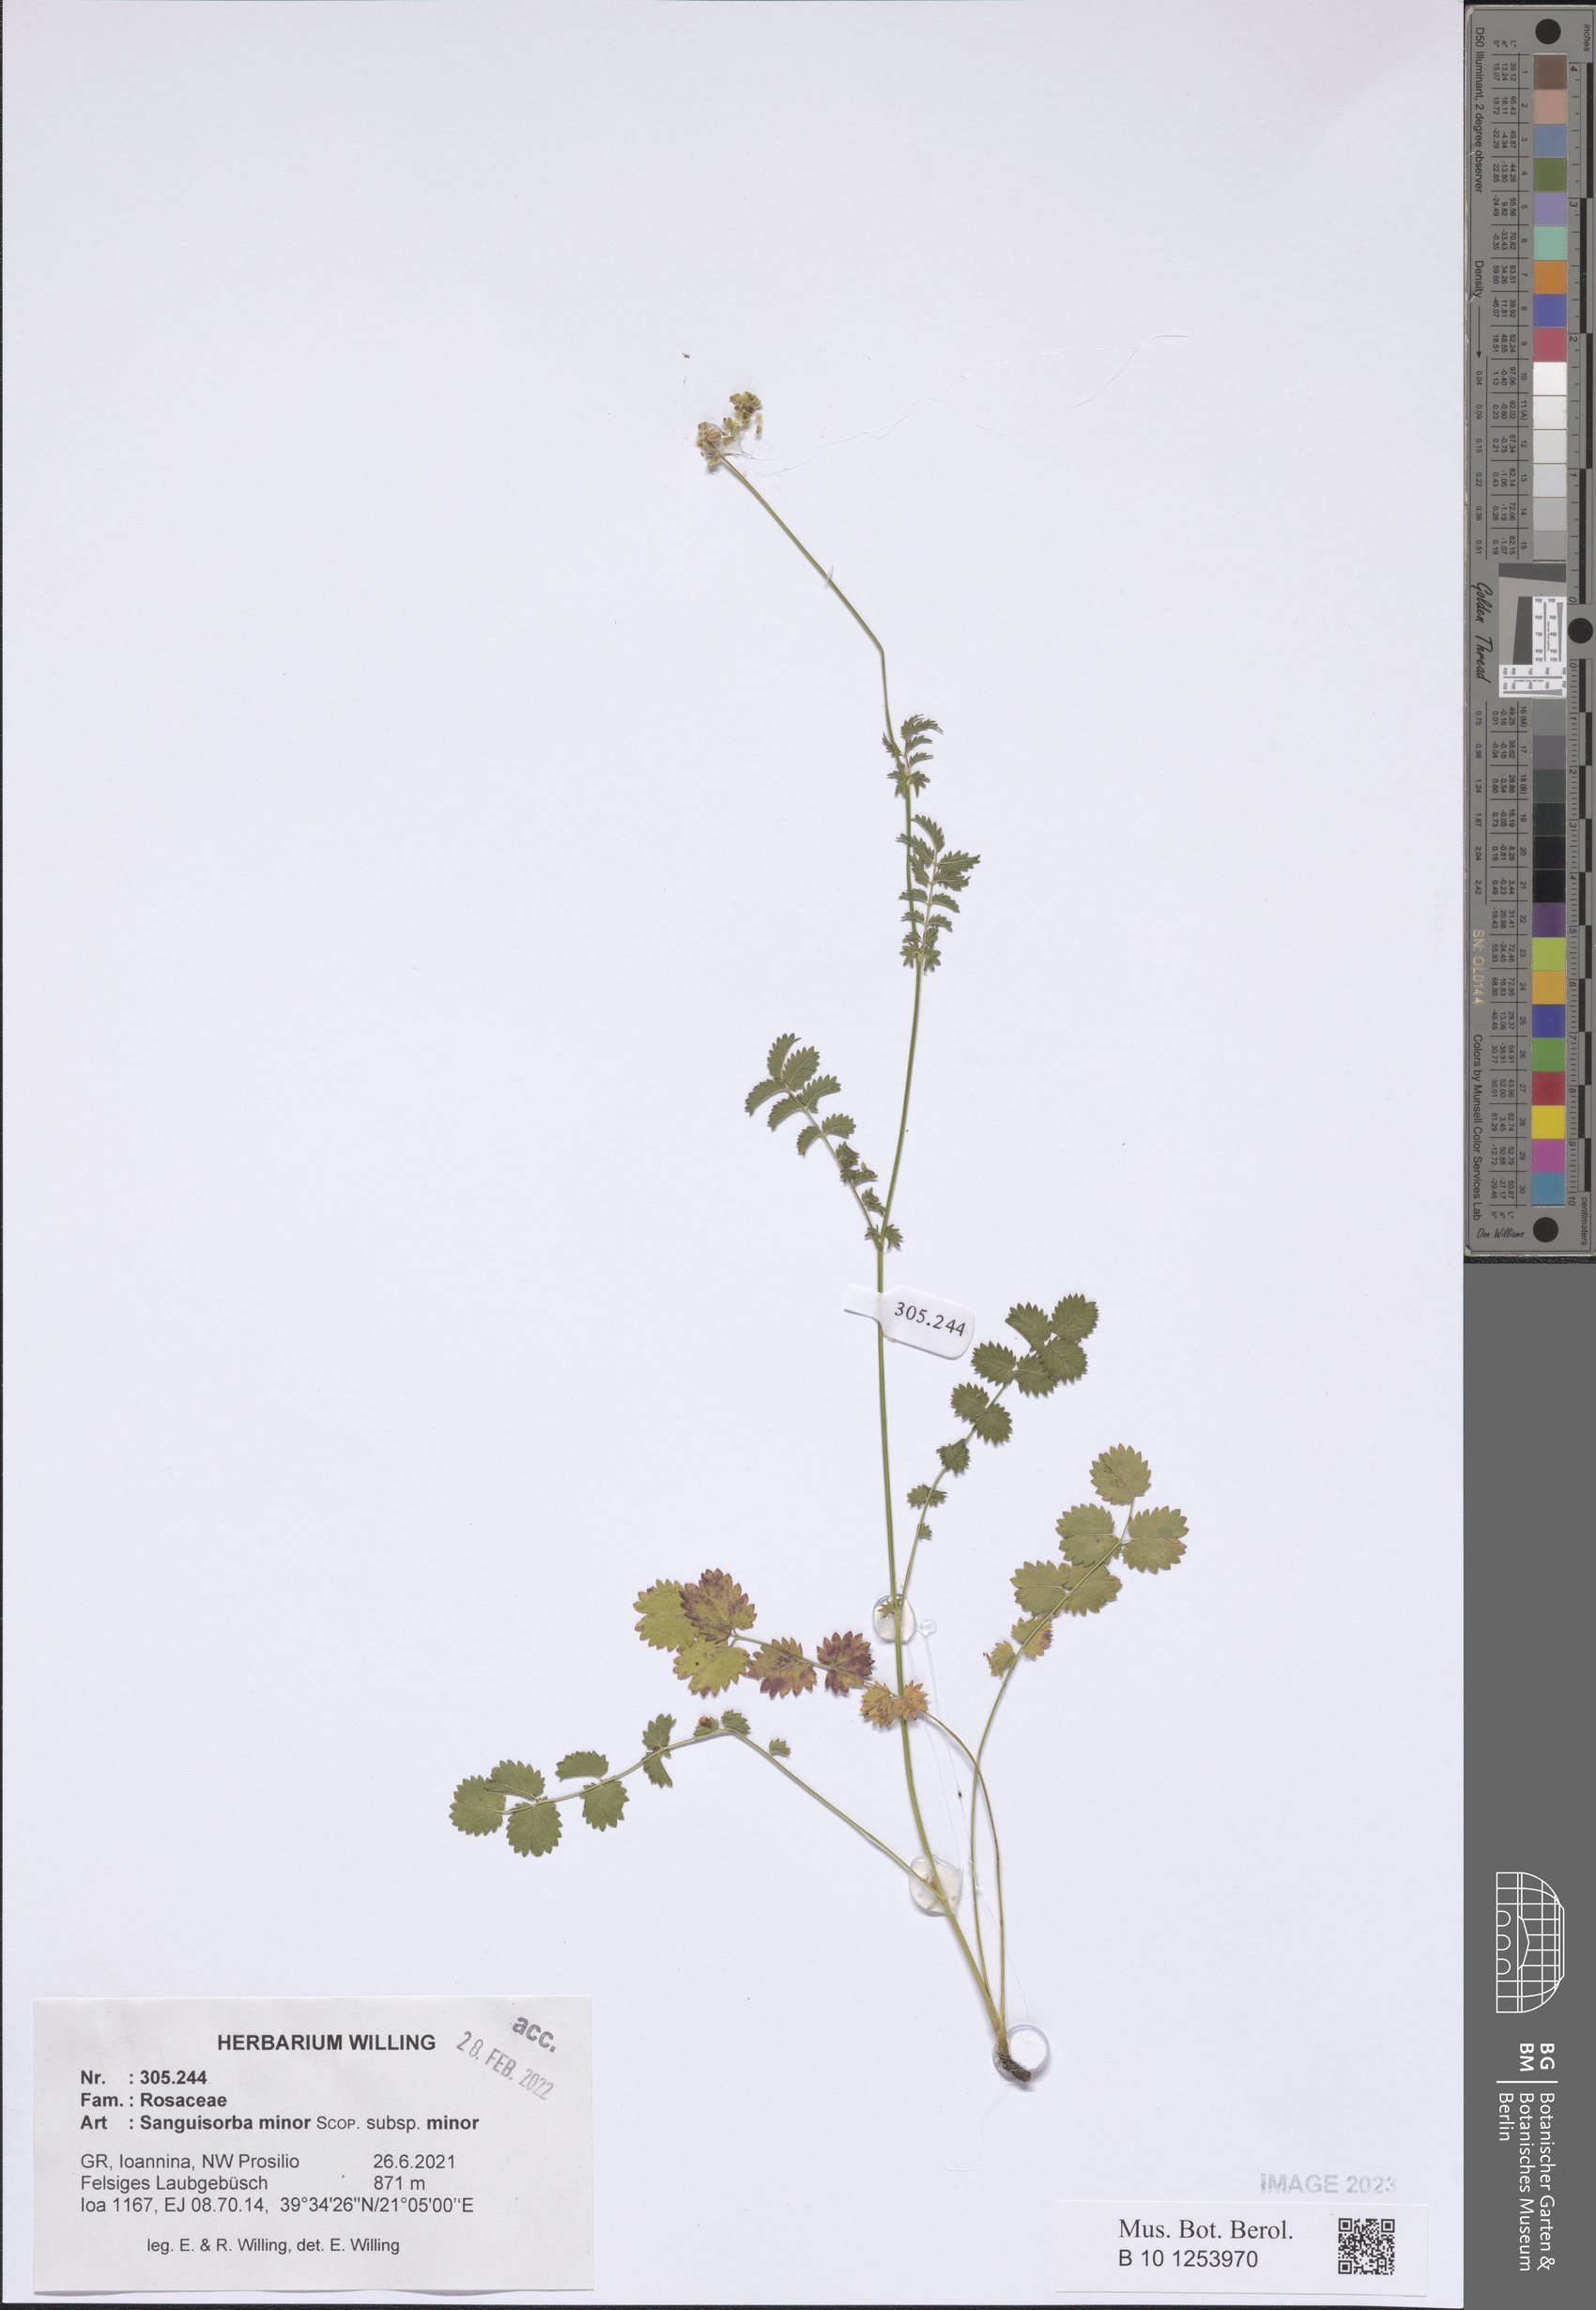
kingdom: Plantae
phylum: Tracheophyta
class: Magnoliopsida
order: Rosales
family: Rosaceae
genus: Poterium
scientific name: Poterium sanguisorba
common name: Salad burnet
